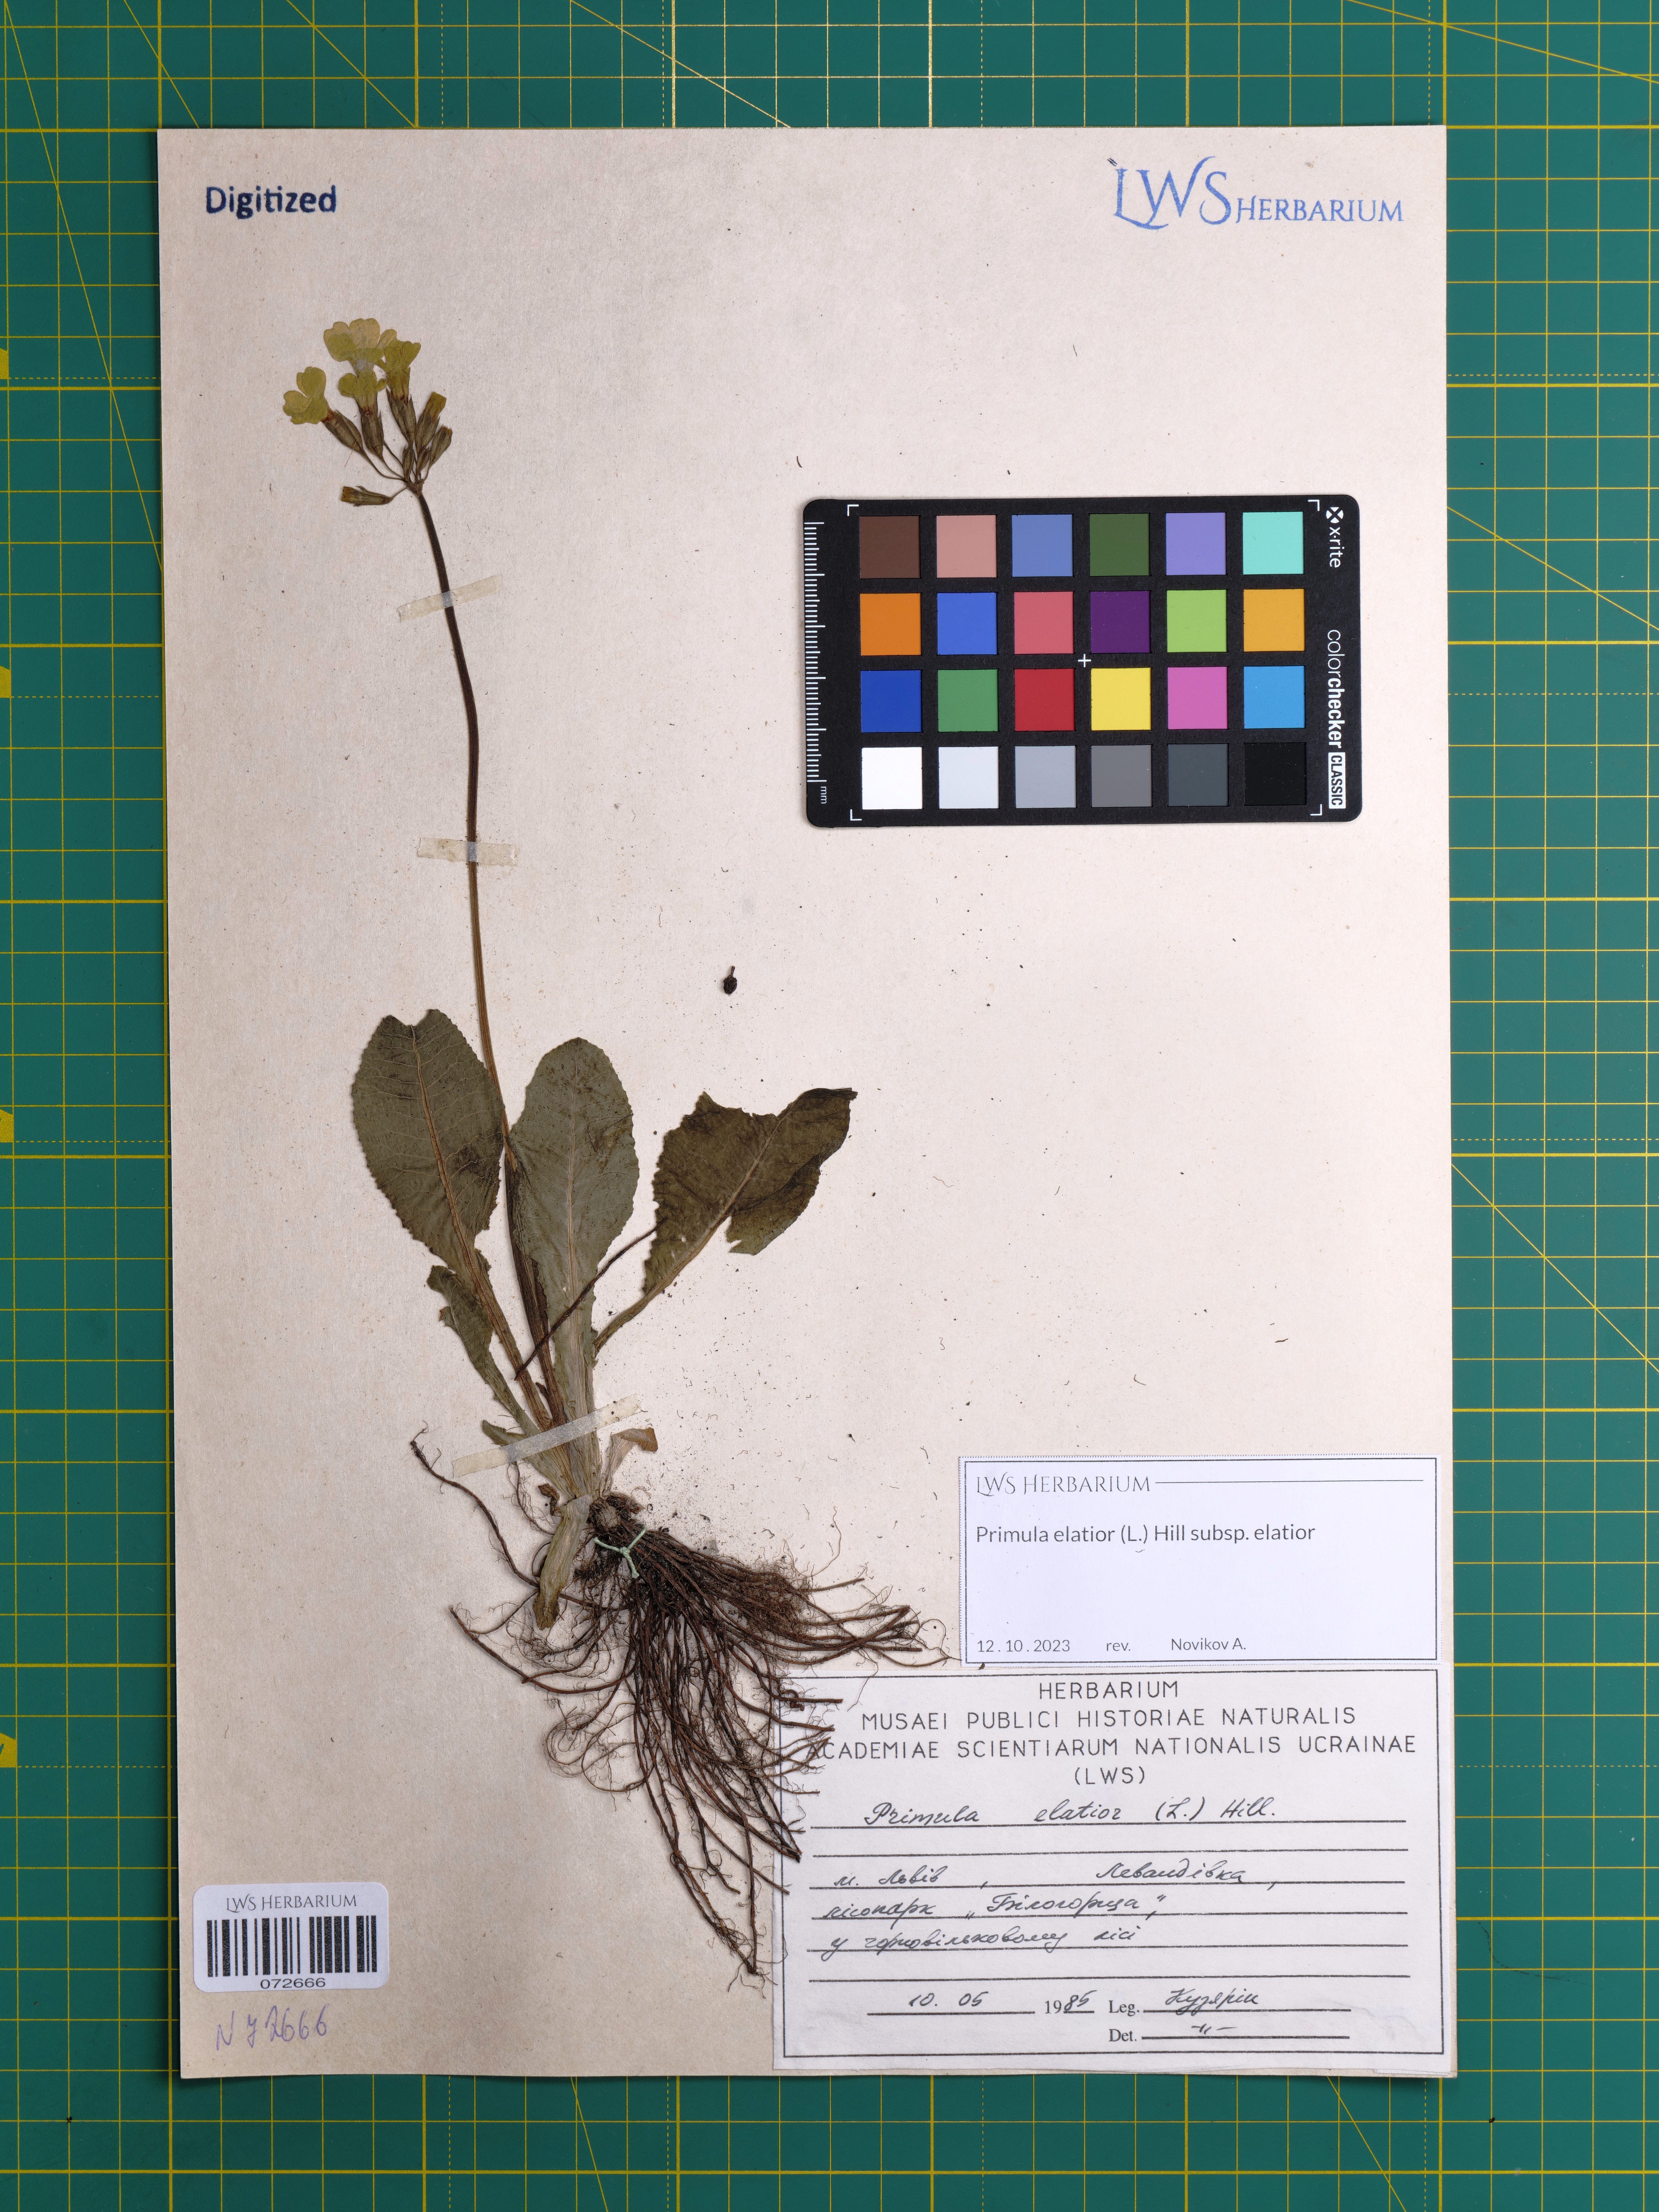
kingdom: Plantae
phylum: Tracheophyta
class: Magnoliopsida
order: Ericales
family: Primulaceae
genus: Primula
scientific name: Primula elatior
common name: Oxlip
